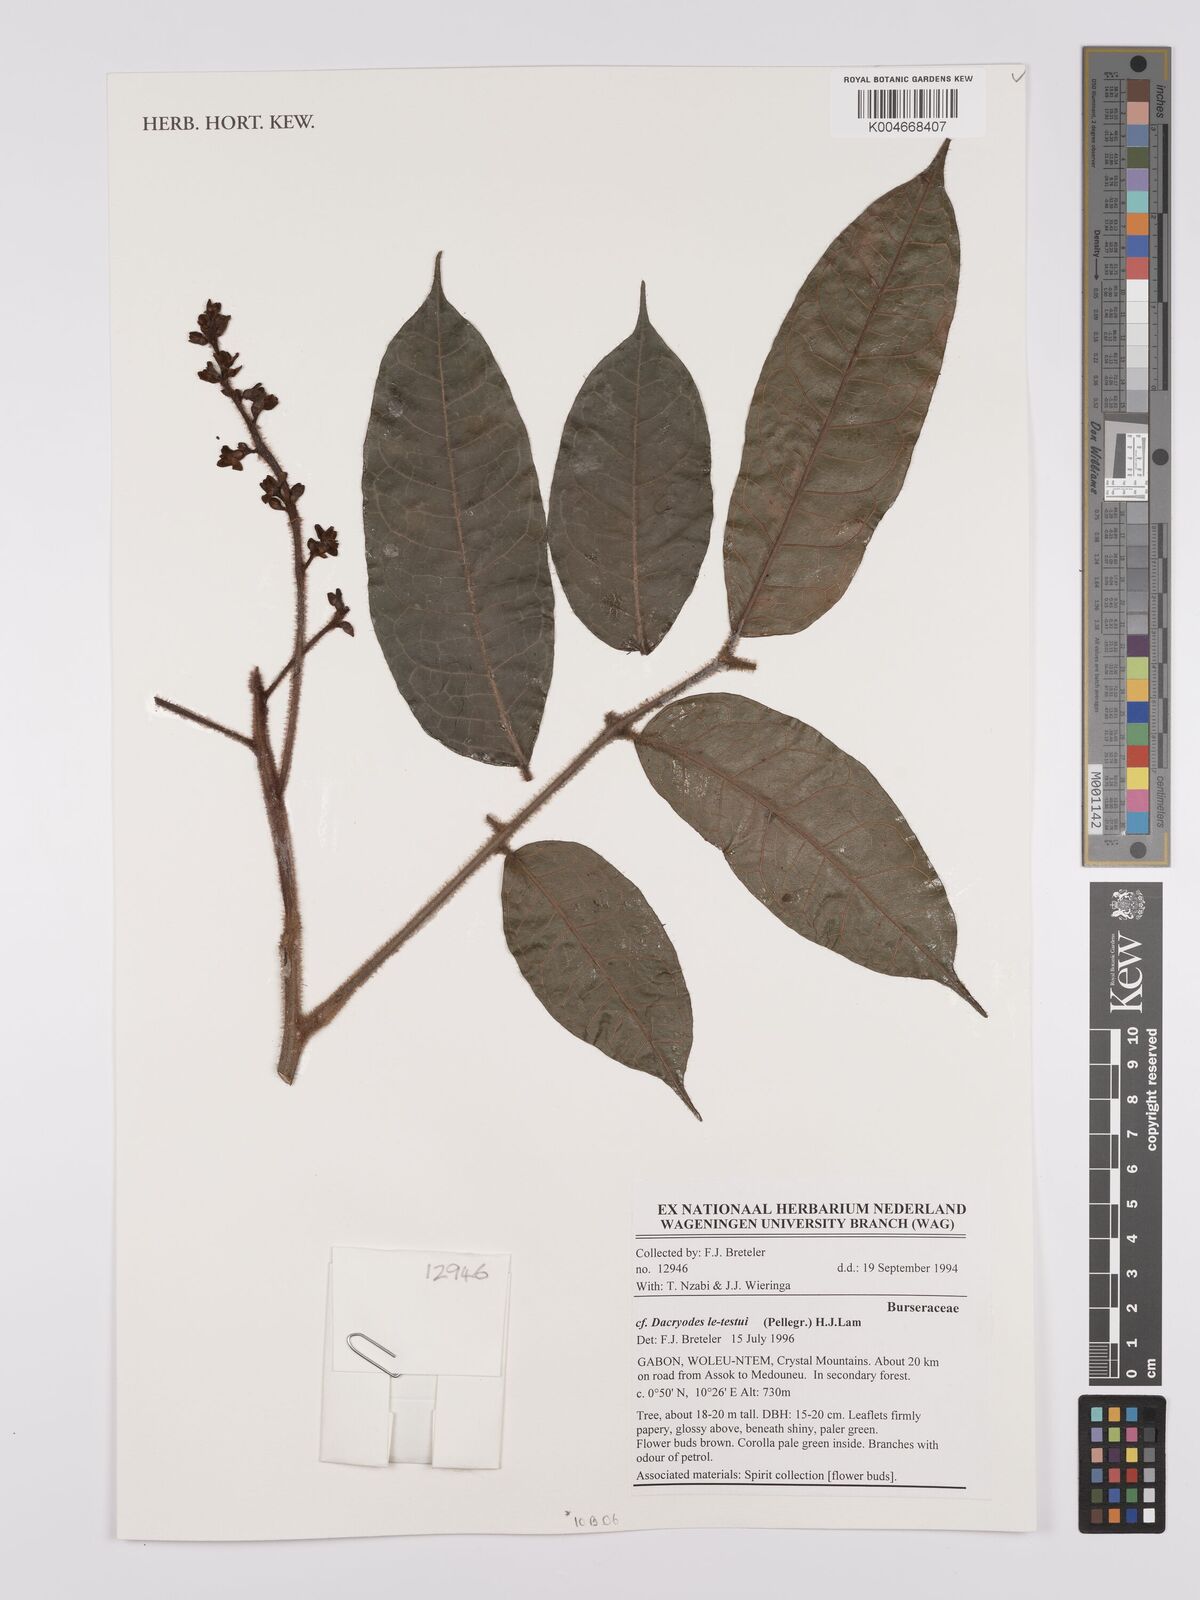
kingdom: Plantae
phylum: Tracheophyta
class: Magnoliopsida
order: Sapindales
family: Burseraceae
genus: Pachylobus
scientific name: Pachylobus letestui
